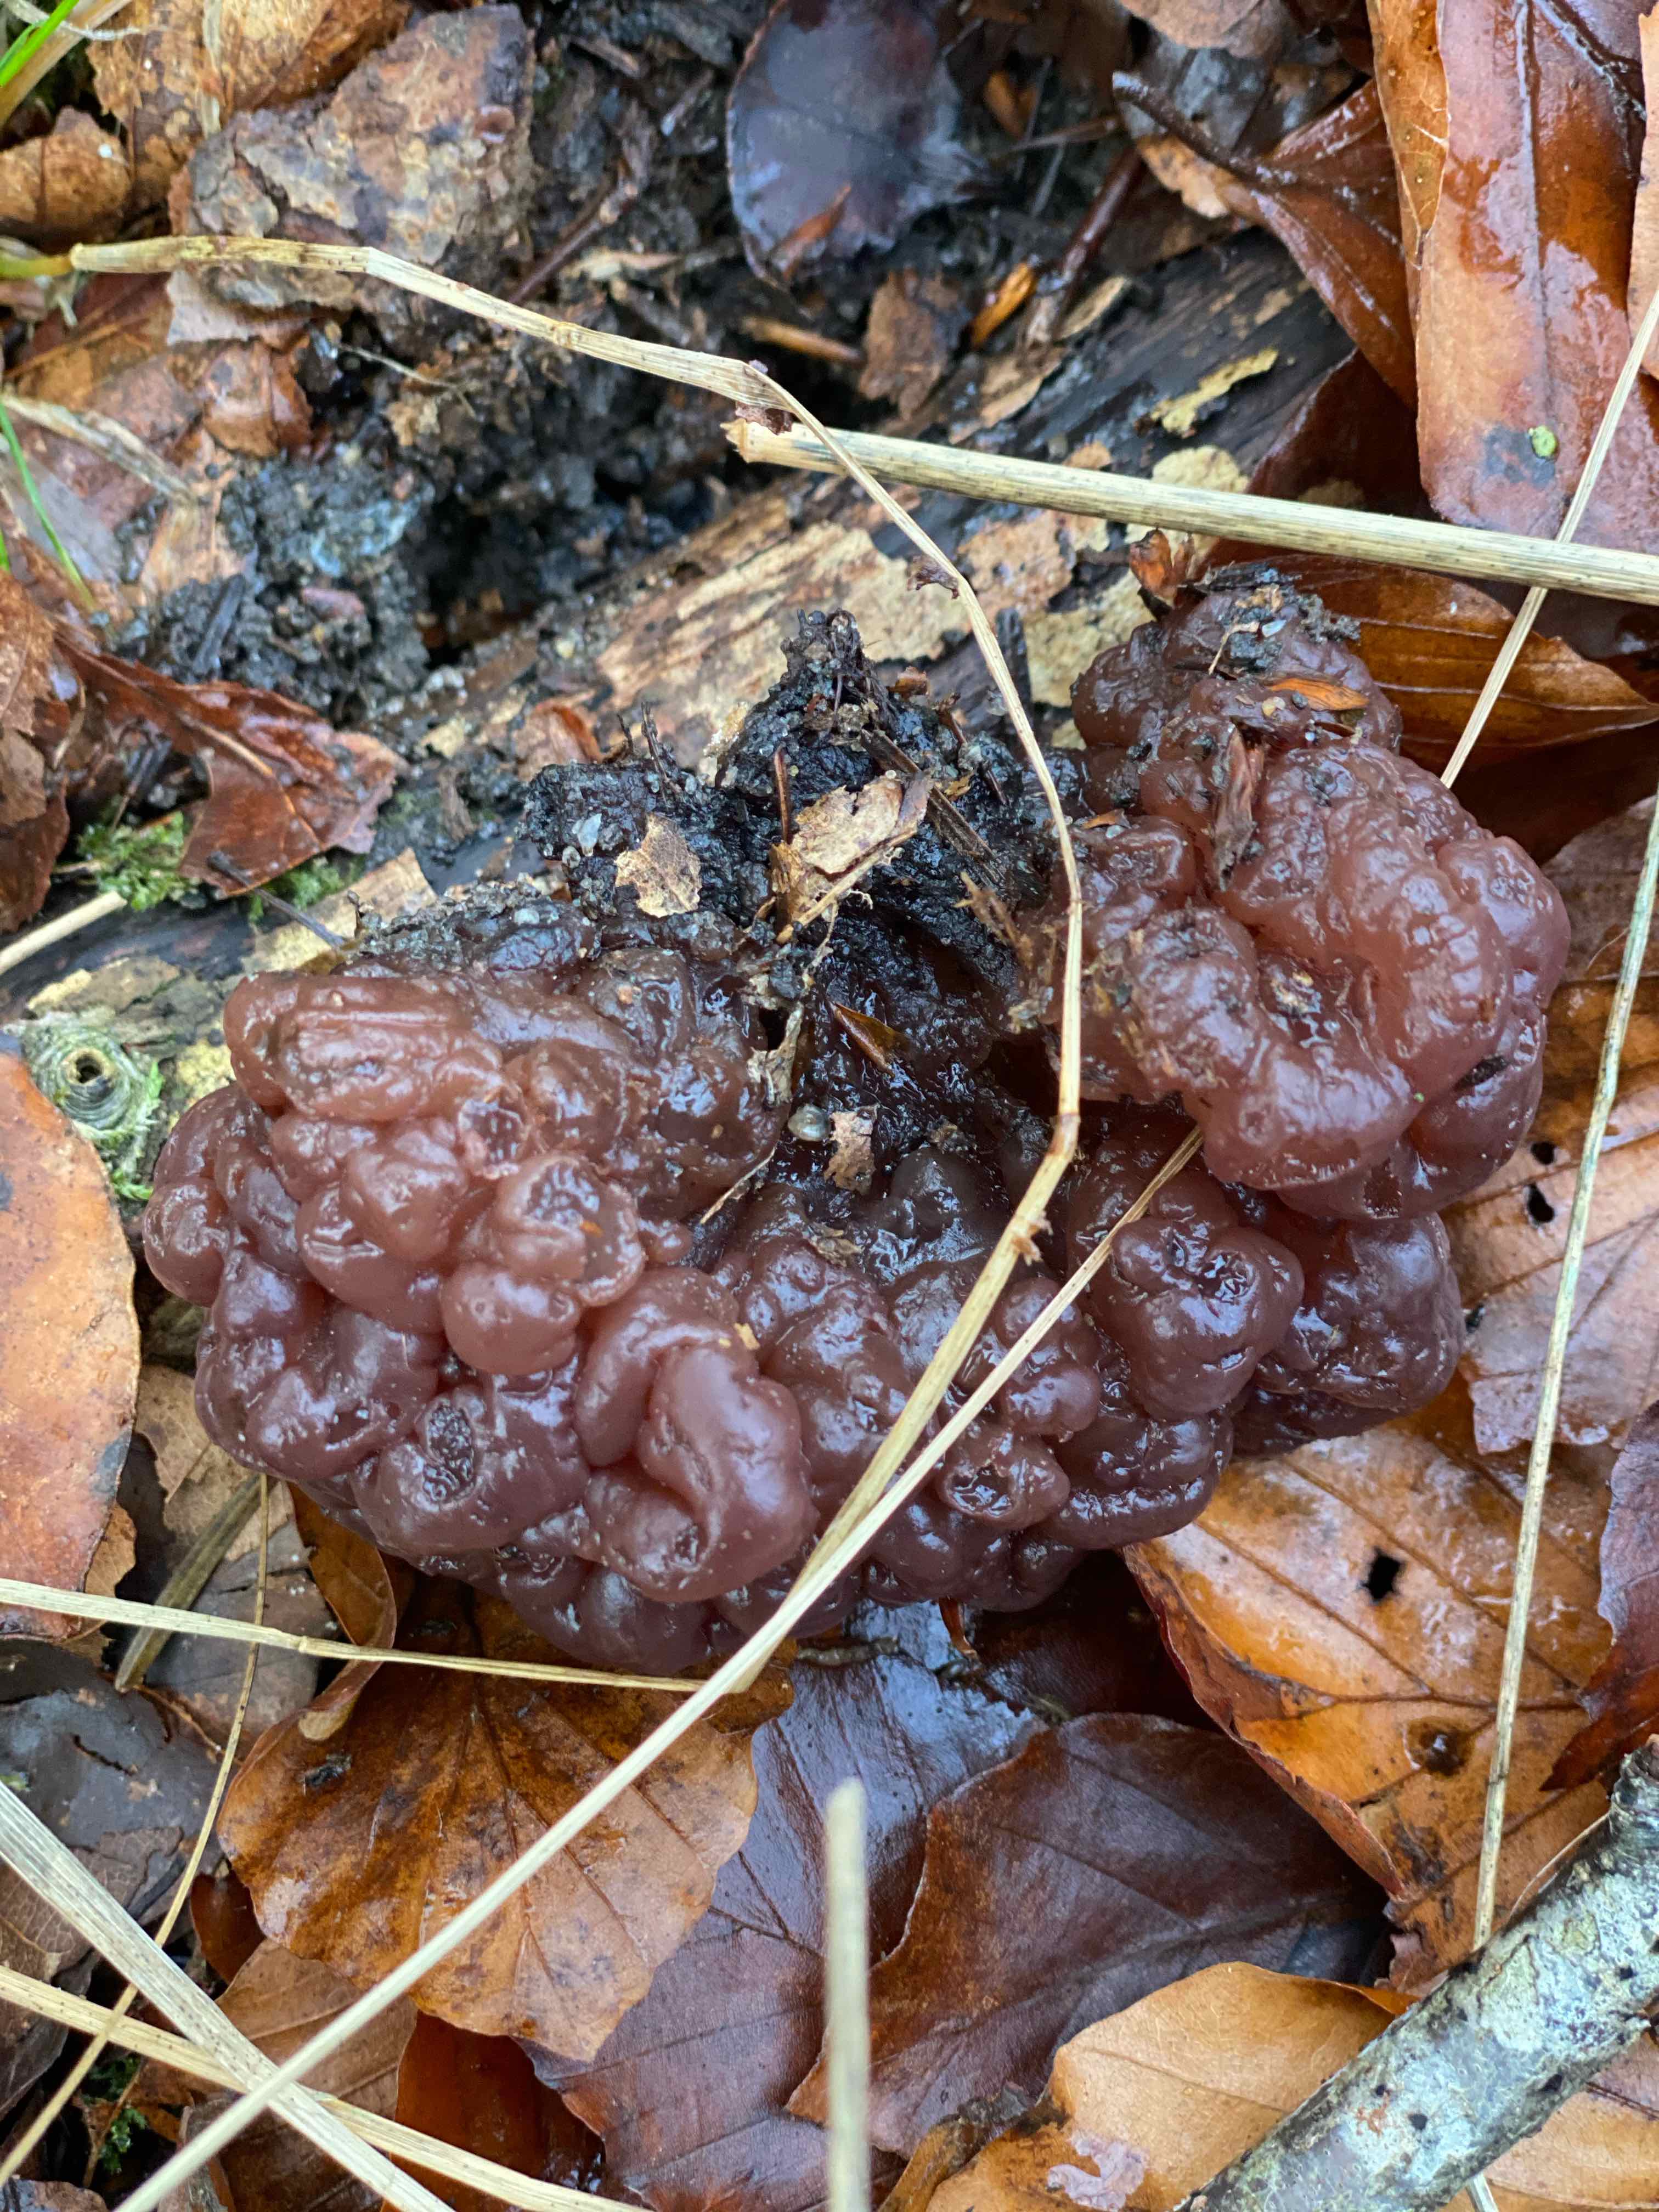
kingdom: Fungi
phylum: Ascomycota
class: Leotiomycetes
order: Helotiales
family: Gelatinodiscaceae
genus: Ascotremella
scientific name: Ascotremella faginea
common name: hjerne-bævreskive
